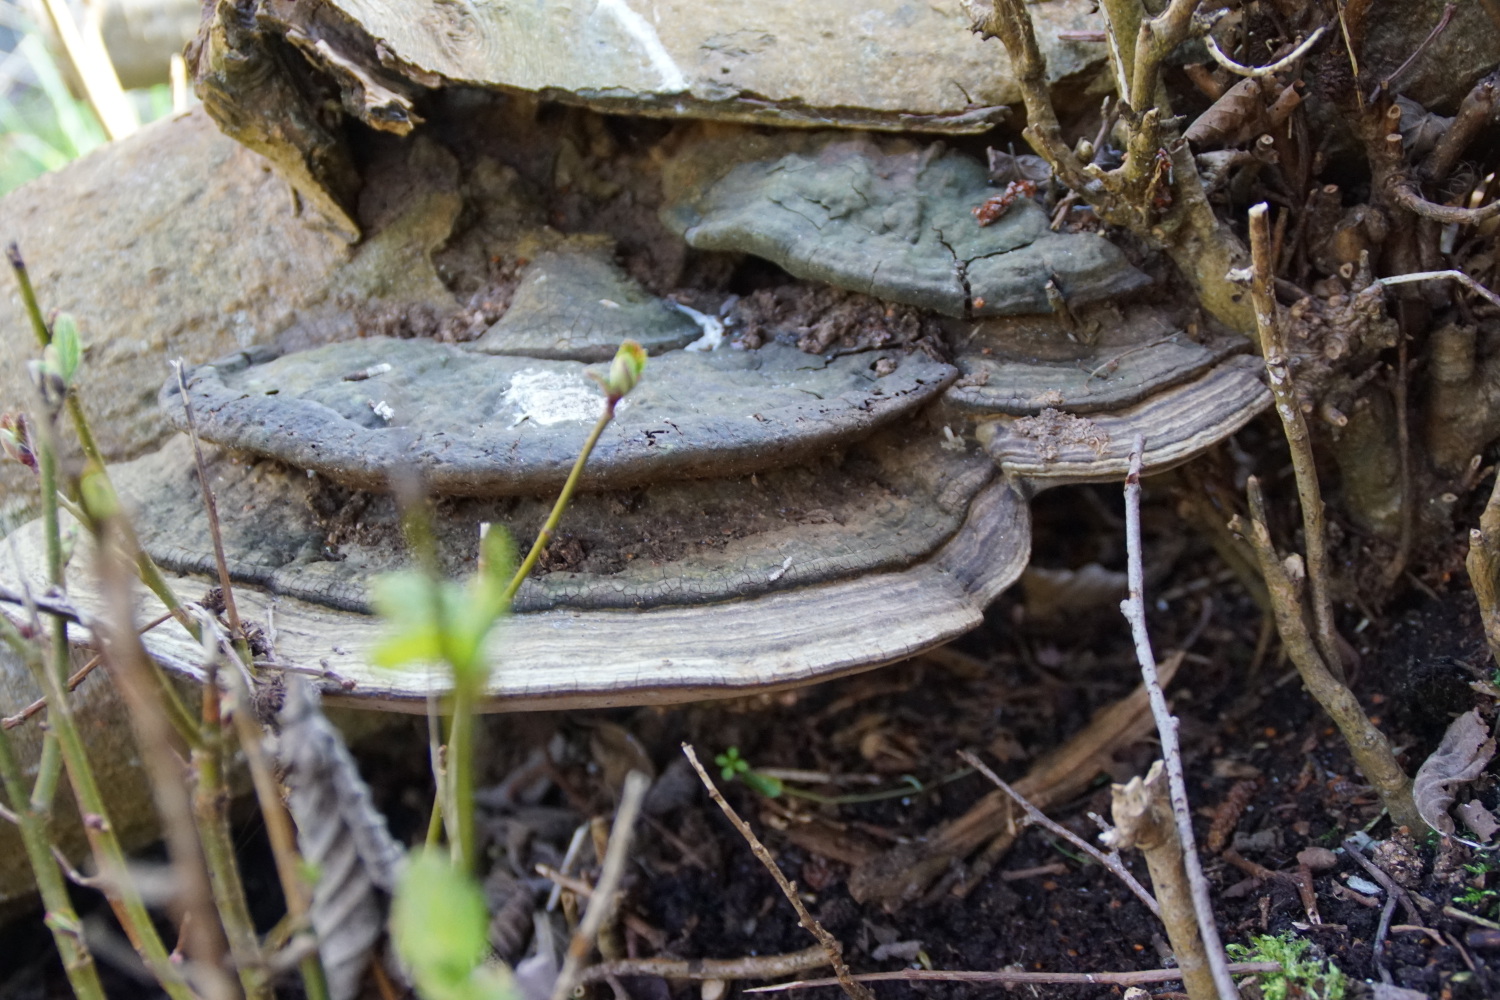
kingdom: Fungi
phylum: Basidiomycota
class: Agaricomycetes
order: Polyporales
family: Polyporaceae
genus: Ganoderma
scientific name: Ganoderma applanatum
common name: flad lakporesvamp
